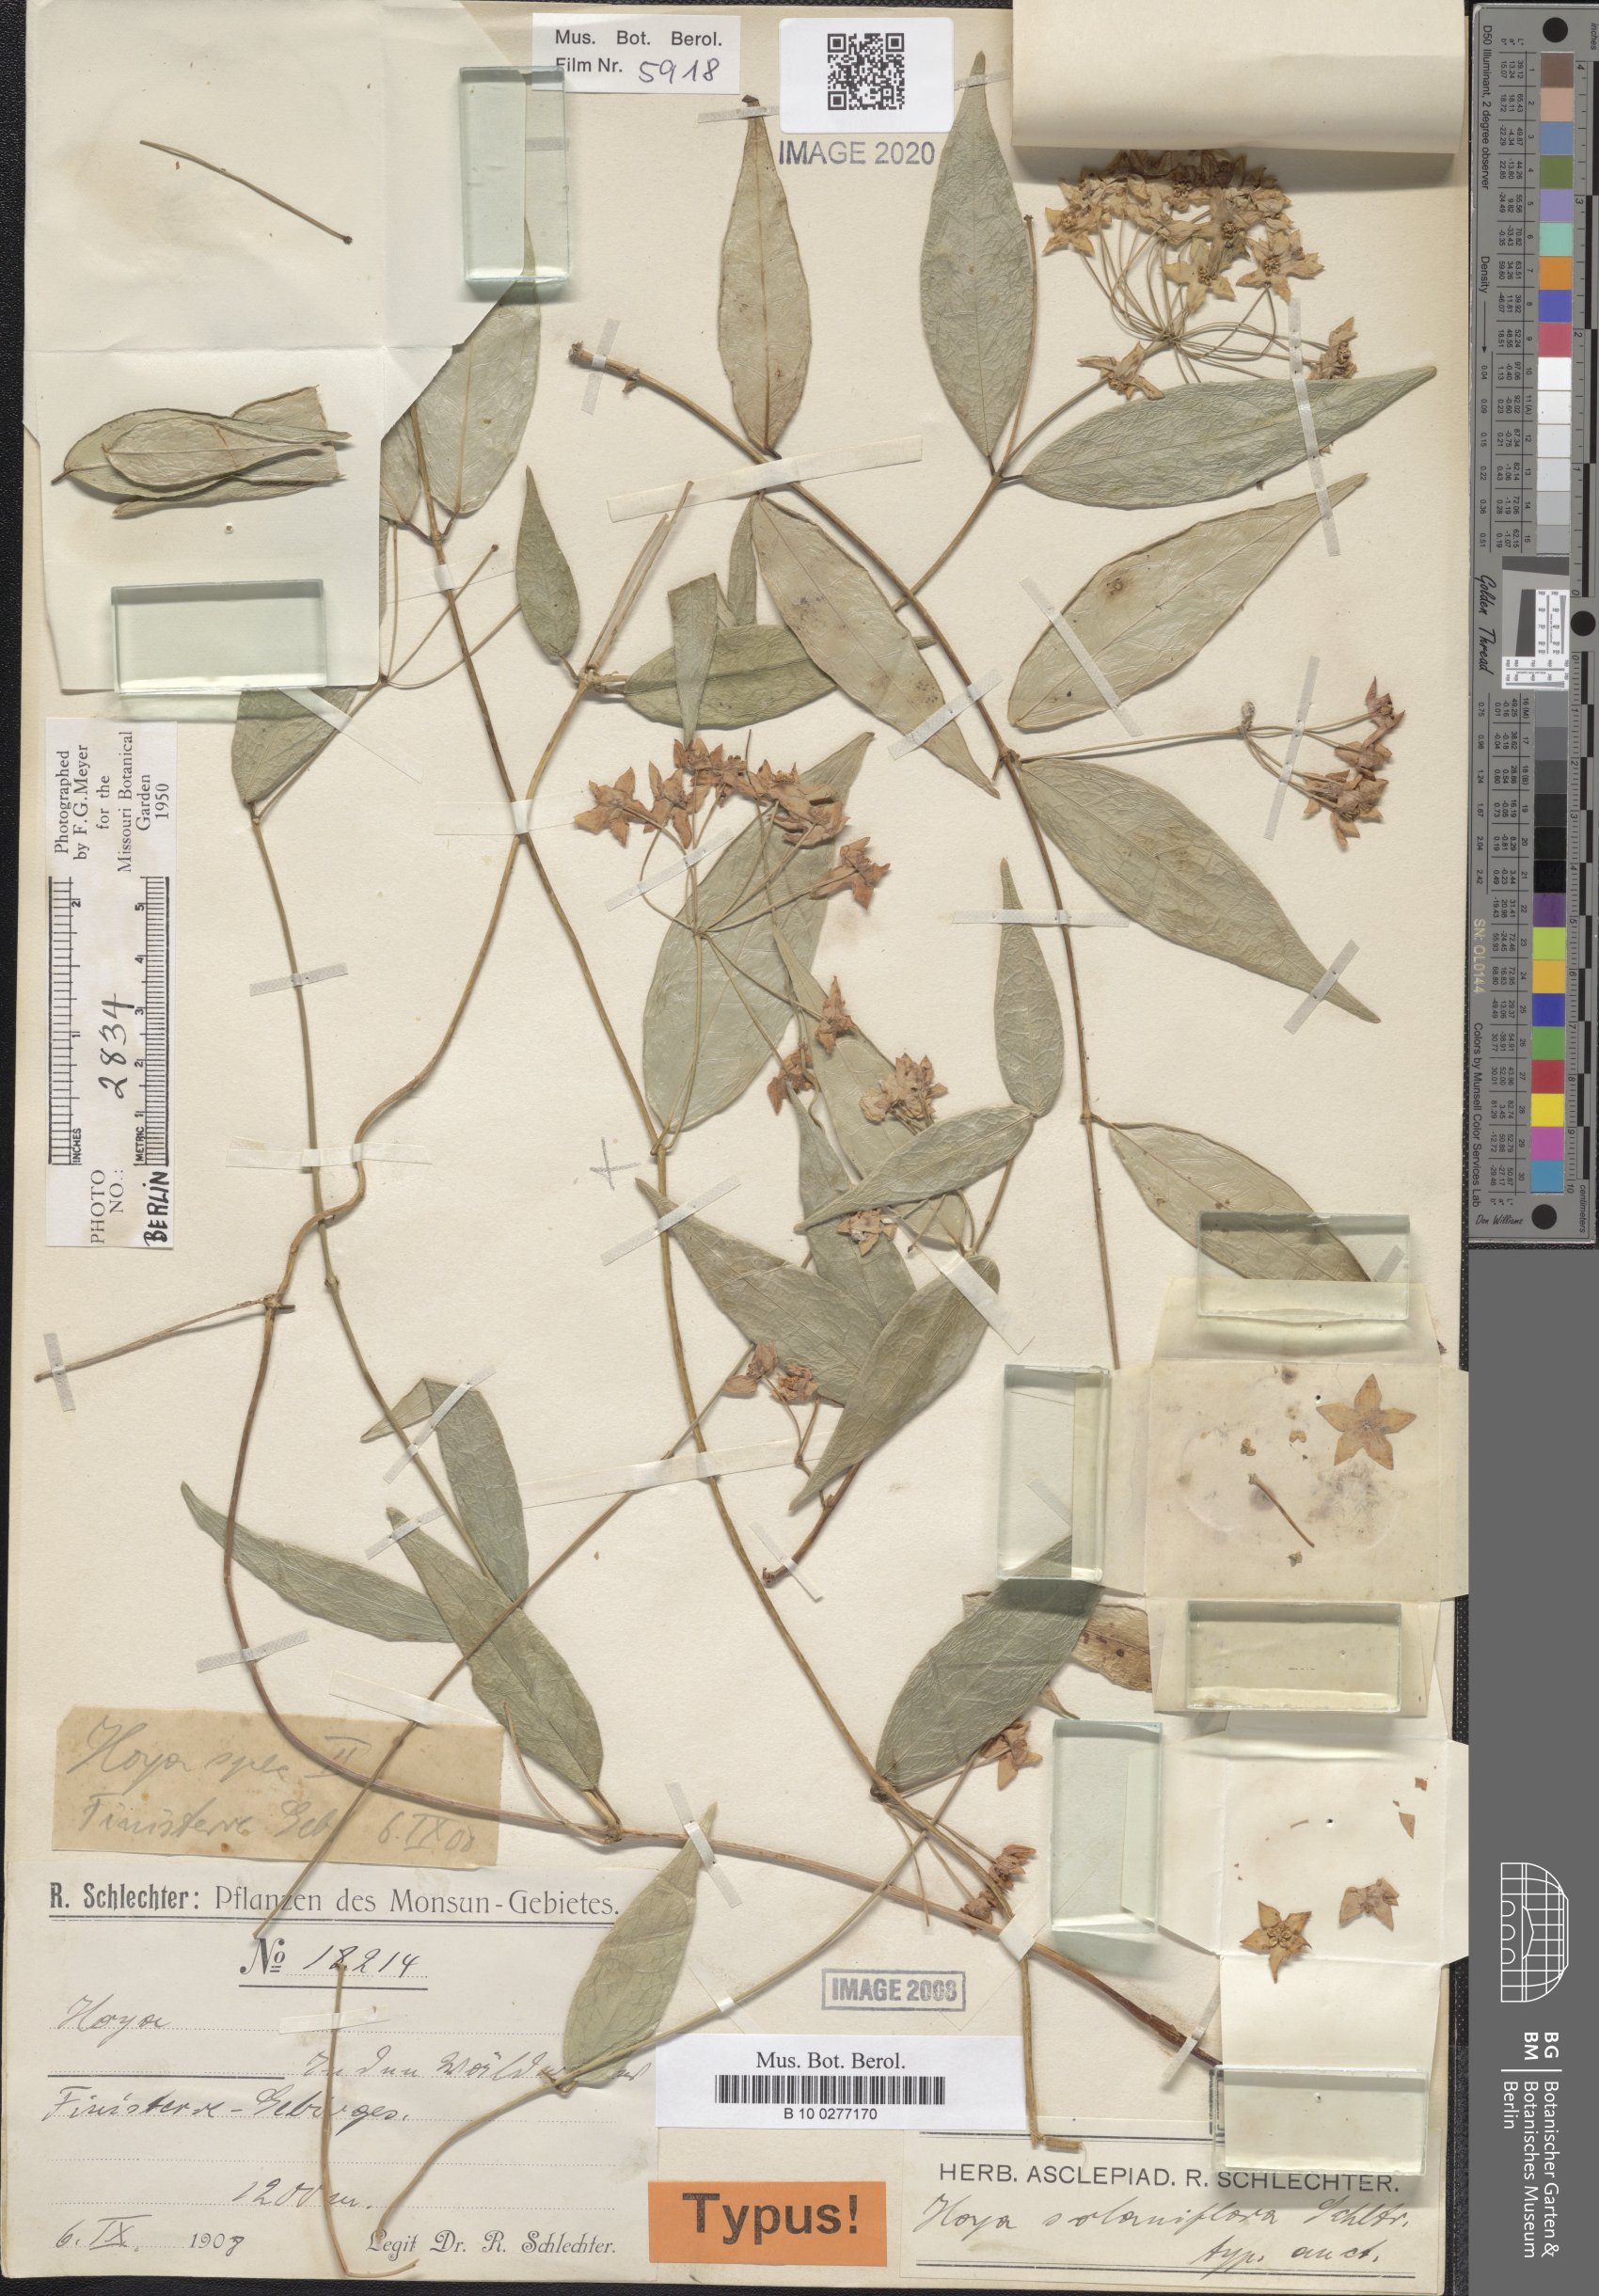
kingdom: Plantae
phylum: Tracheophyta
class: Magnoliopsida
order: Gentianales
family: Apocynaceae
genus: Hoya
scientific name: Hoya solaniflora
